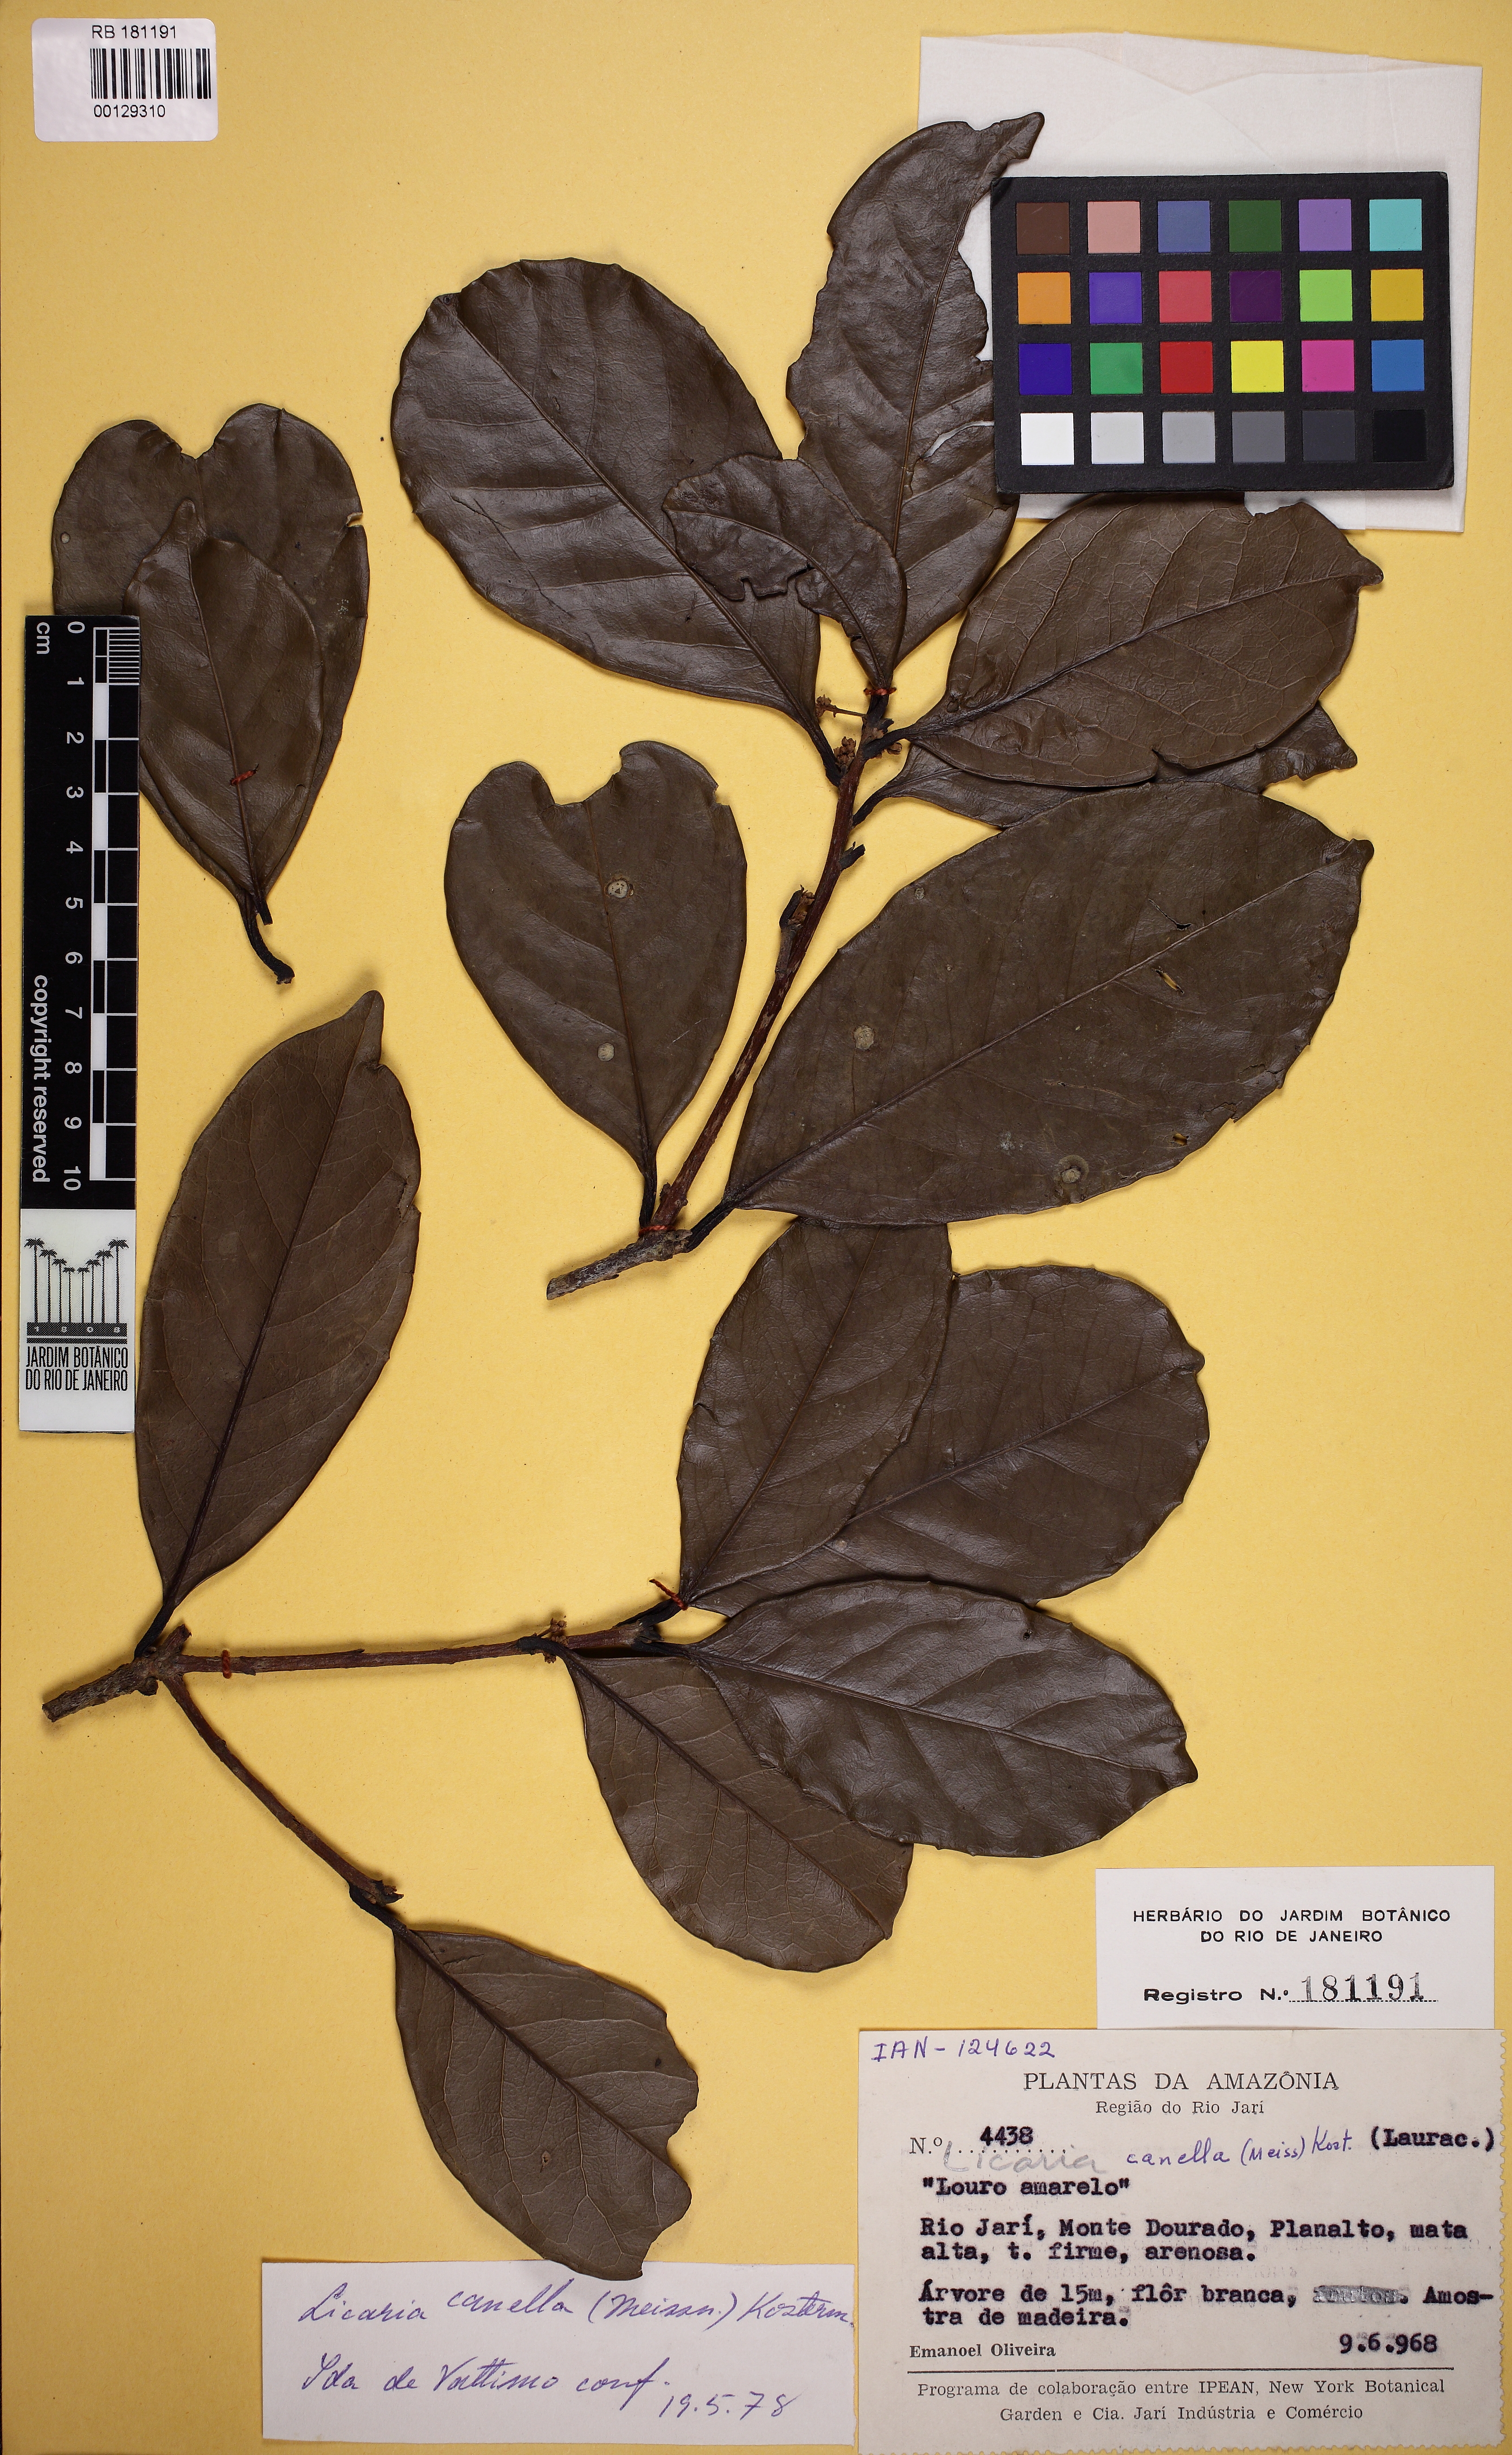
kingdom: Plantae
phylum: Tracheophyta
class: Magnoliopsida
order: Laurales
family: Lauraceae
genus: Licaria
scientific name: Licaria canella
